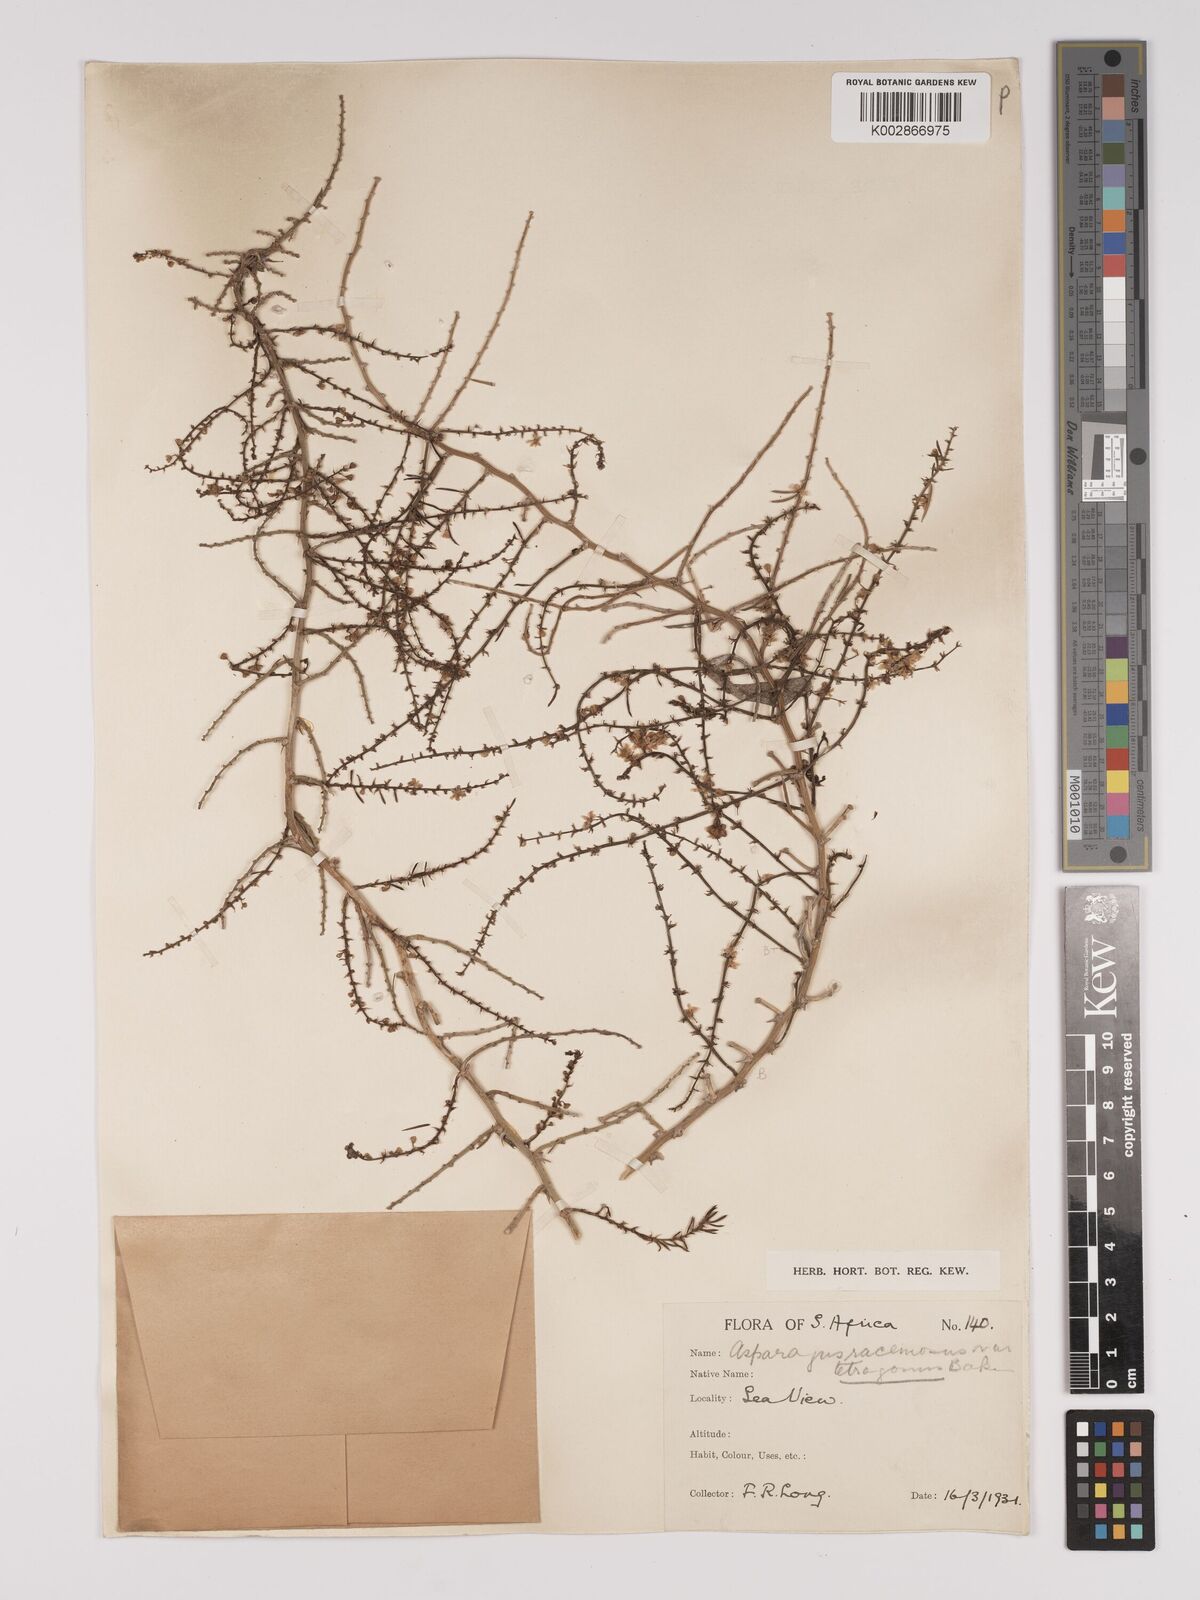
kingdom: Plantae
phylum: Tracheophyta
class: Liliopsida
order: Asparagales
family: Asparagaceae
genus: Asparagus
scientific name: Asparagus racemosus
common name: Asparagus-fern
